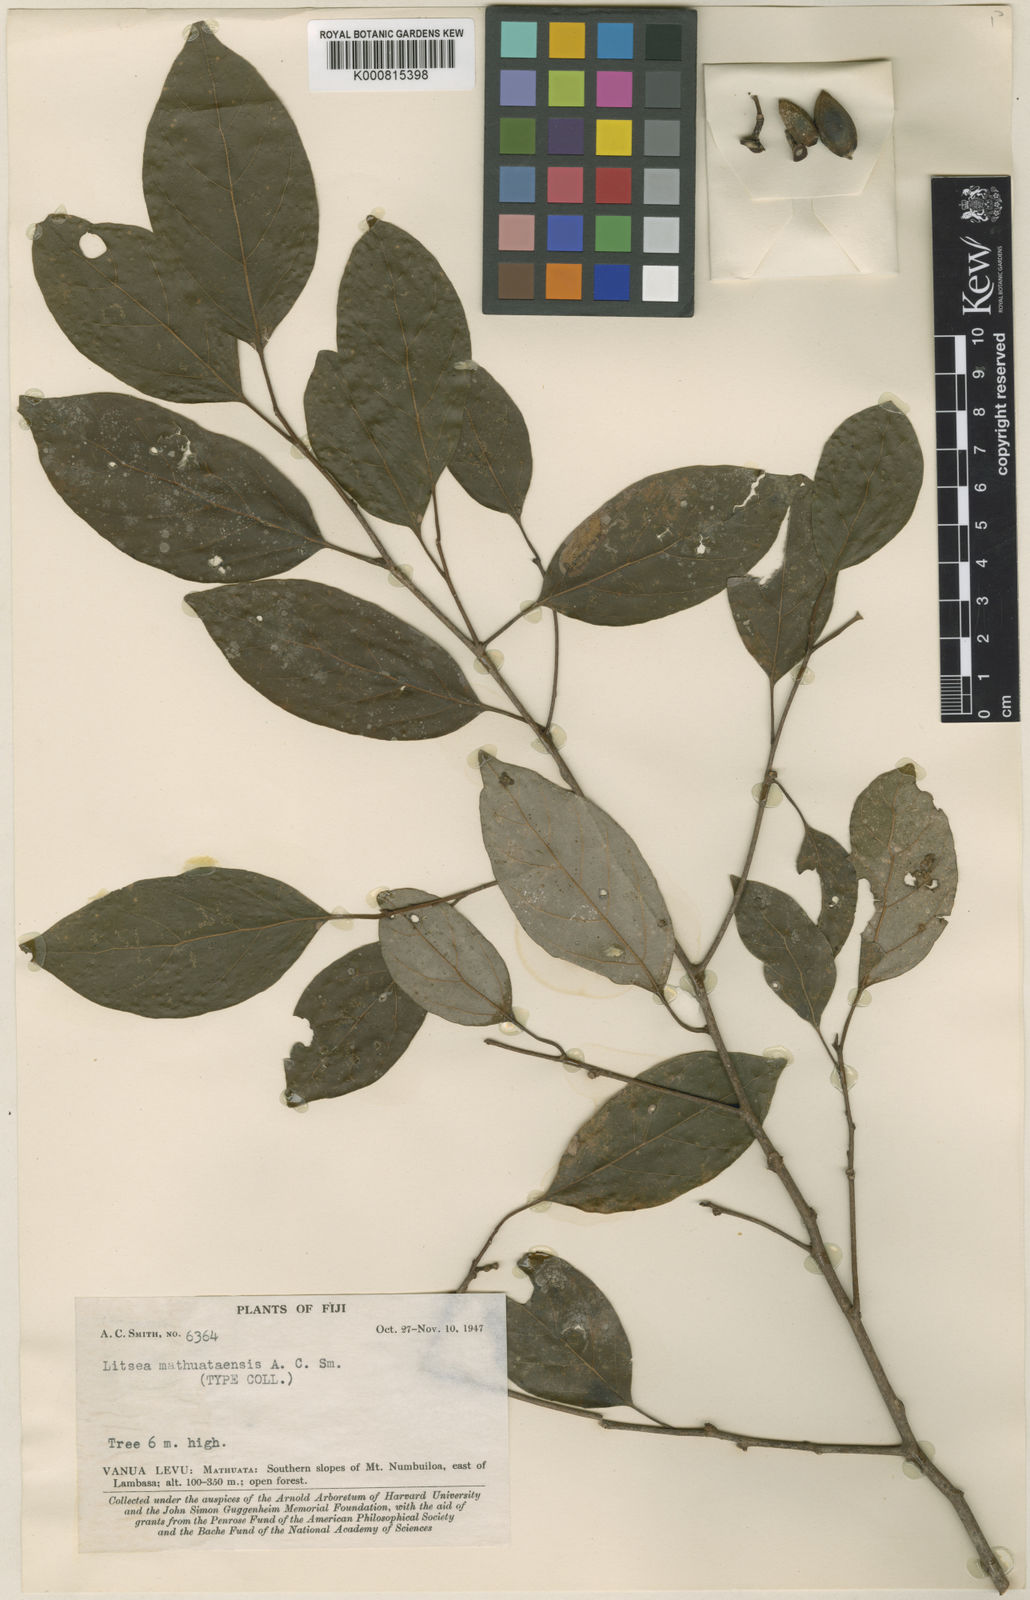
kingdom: Plantae
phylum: Tracheophyta
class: Magnoliopsida
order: Laurales
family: Lauraceae
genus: Litsea
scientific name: Litsea mathuataensis
